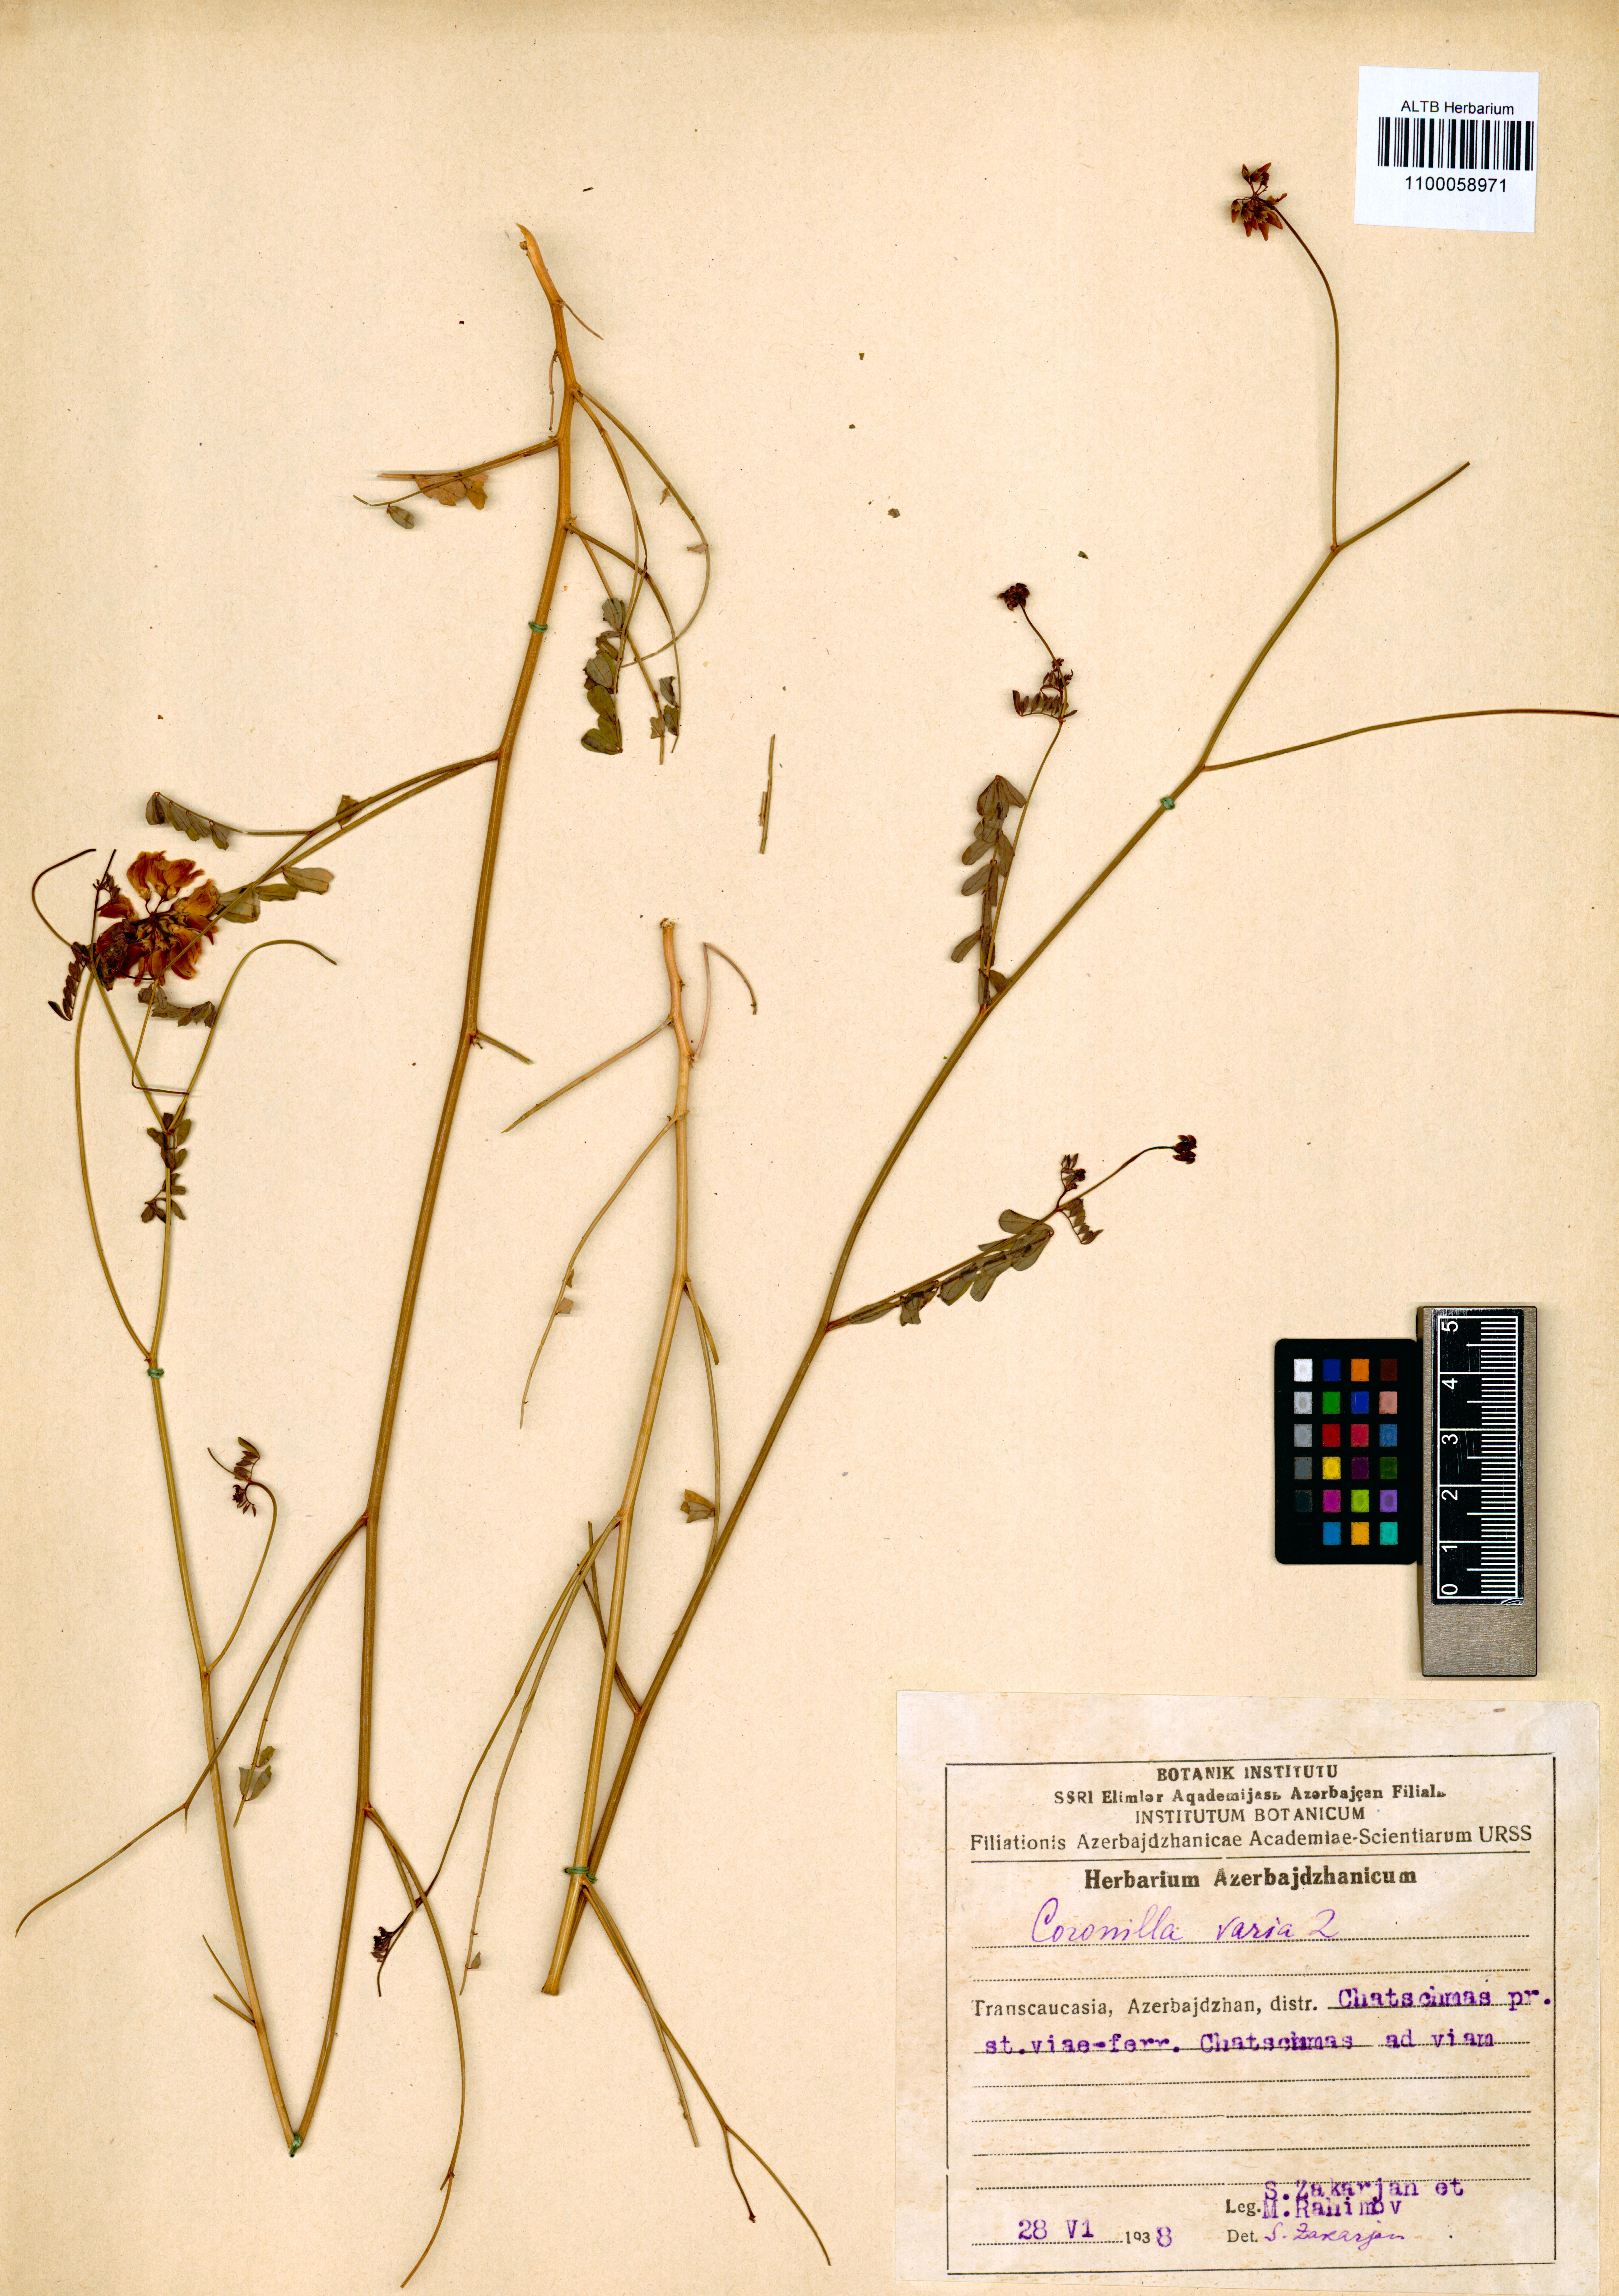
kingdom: Plantae
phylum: Tracheophyta
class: Magnoliopsida
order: Fabales
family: Fabaceae
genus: Coronilla
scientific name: Coronilla varia
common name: Crownvetch
